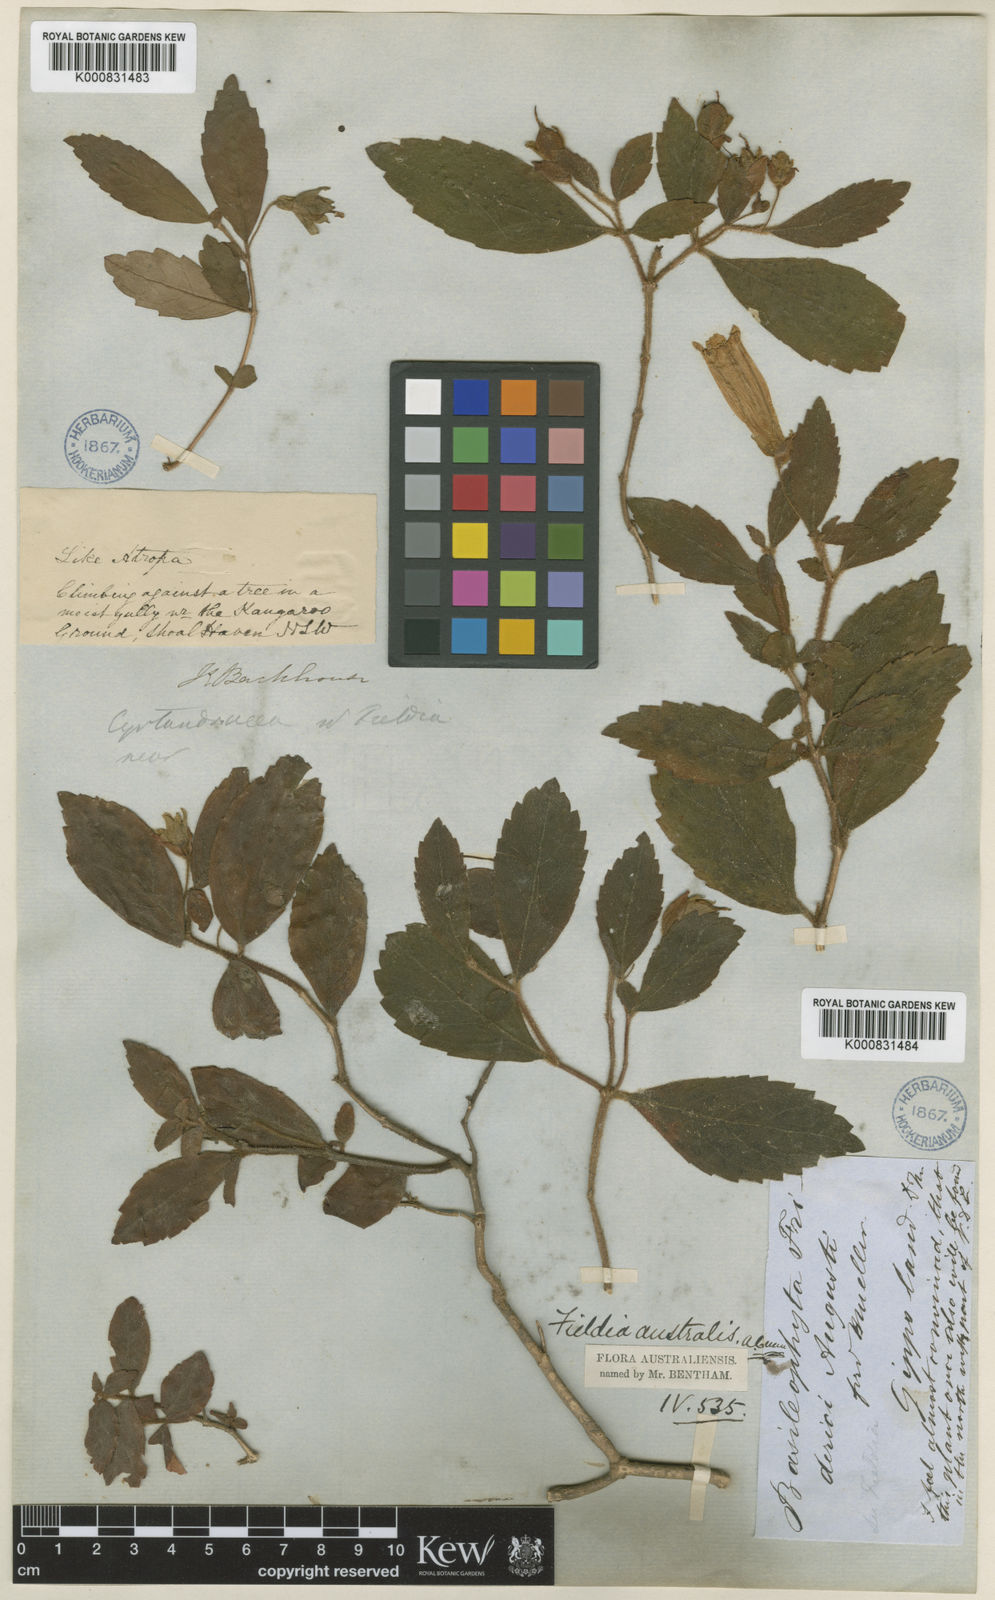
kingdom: Plantae
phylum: Tracheophyta
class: Magnoliopsida
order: Lamiales
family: Gesneriaceae
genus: Fieldia
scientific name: Fieldia australis
